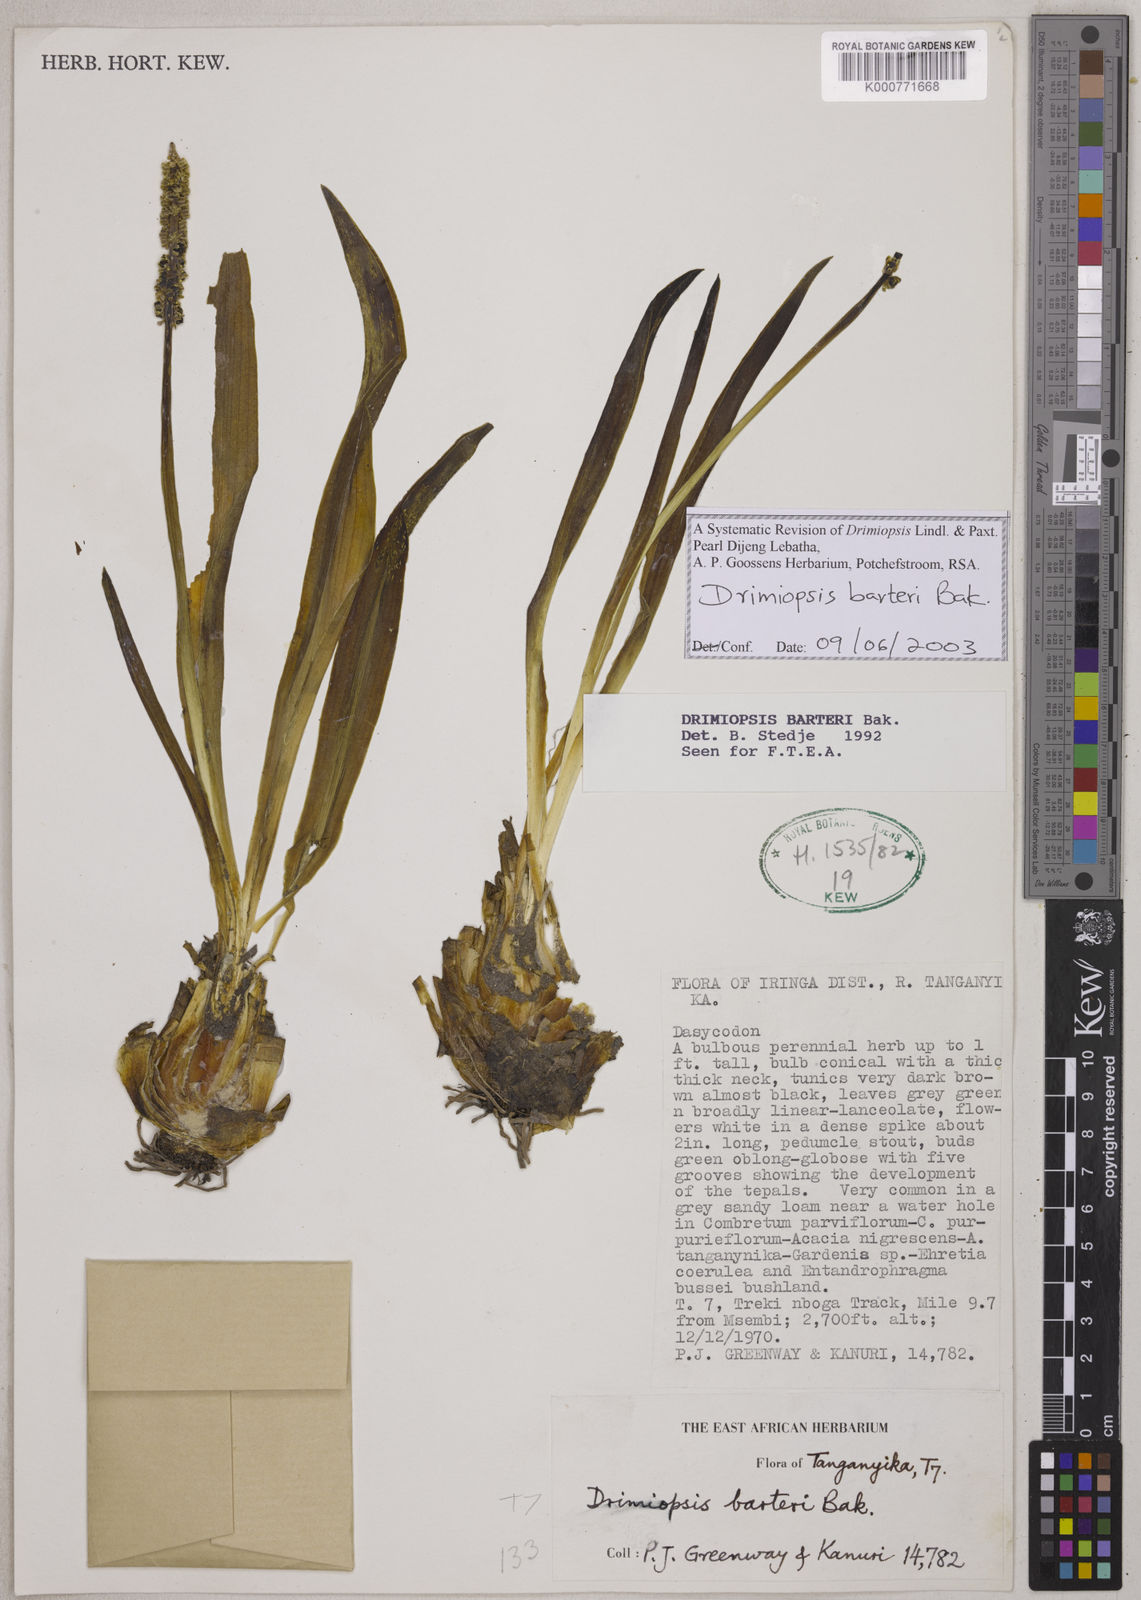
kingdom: Plantae
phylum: Tracheophyta
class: Liliopsida
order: Asparagales
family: Asparagaceae
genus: Drimiopsis
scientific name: Drimiopsis barteri
